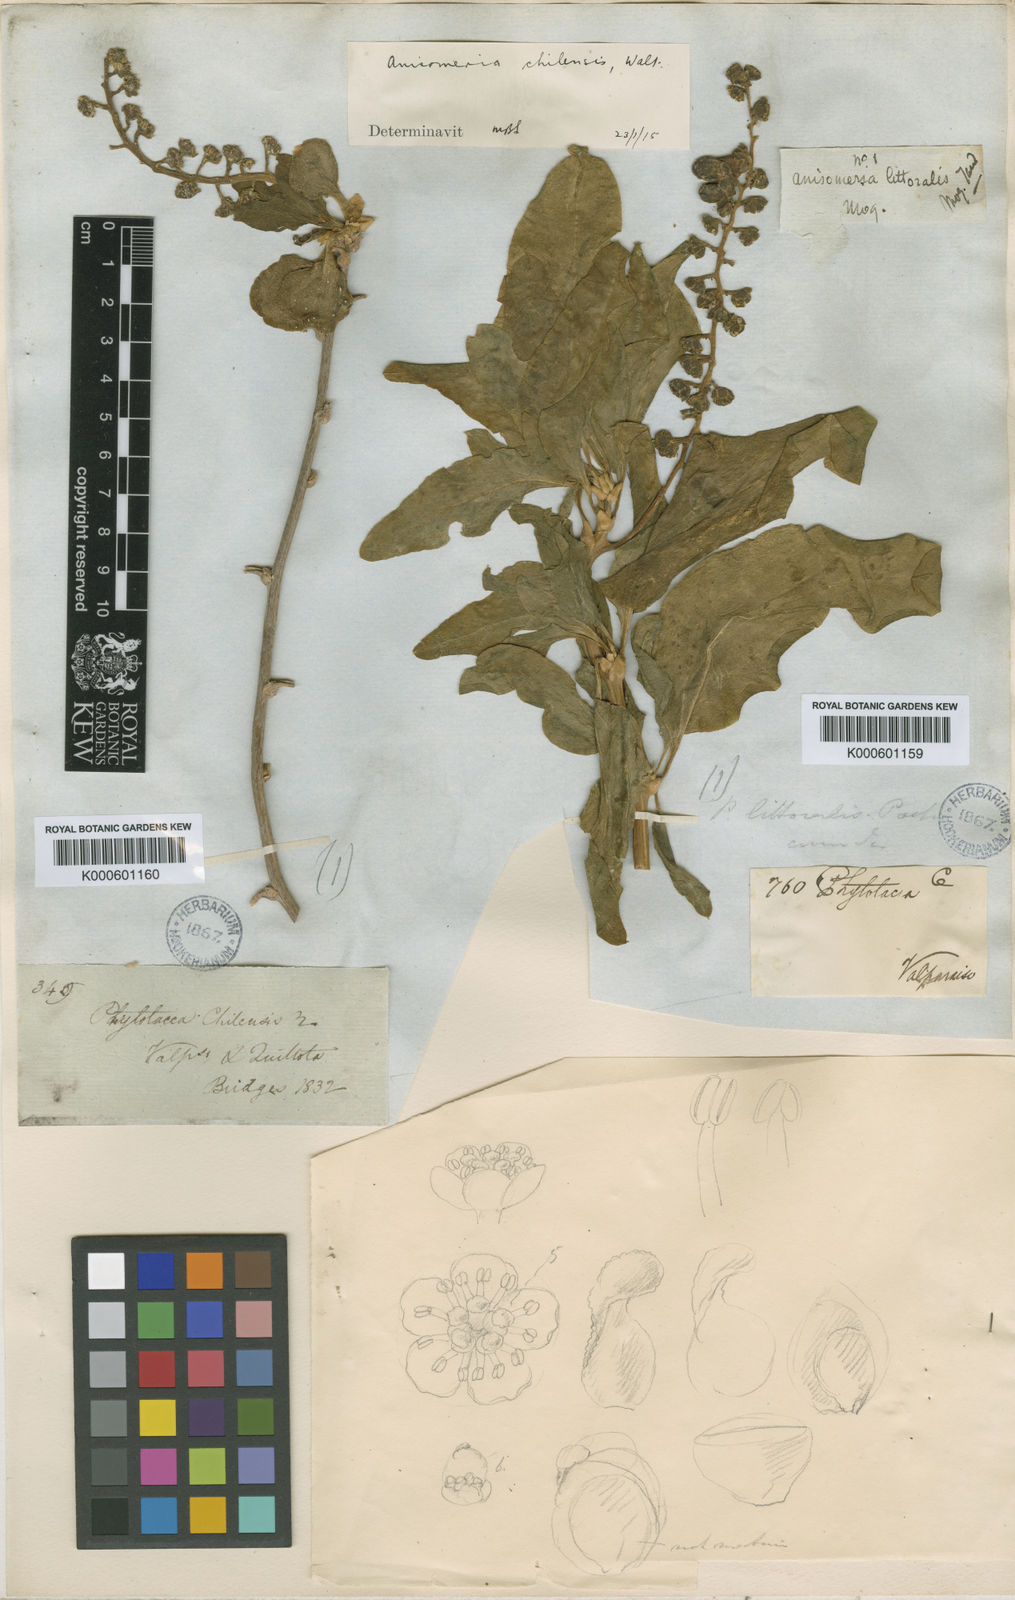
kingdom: Plantae
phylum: Tracheophyta
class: Magnoliopsida
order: Caryophyllales
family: Phytolaccaceae
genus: Anisomeria
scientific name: Anisomeria littoralis
